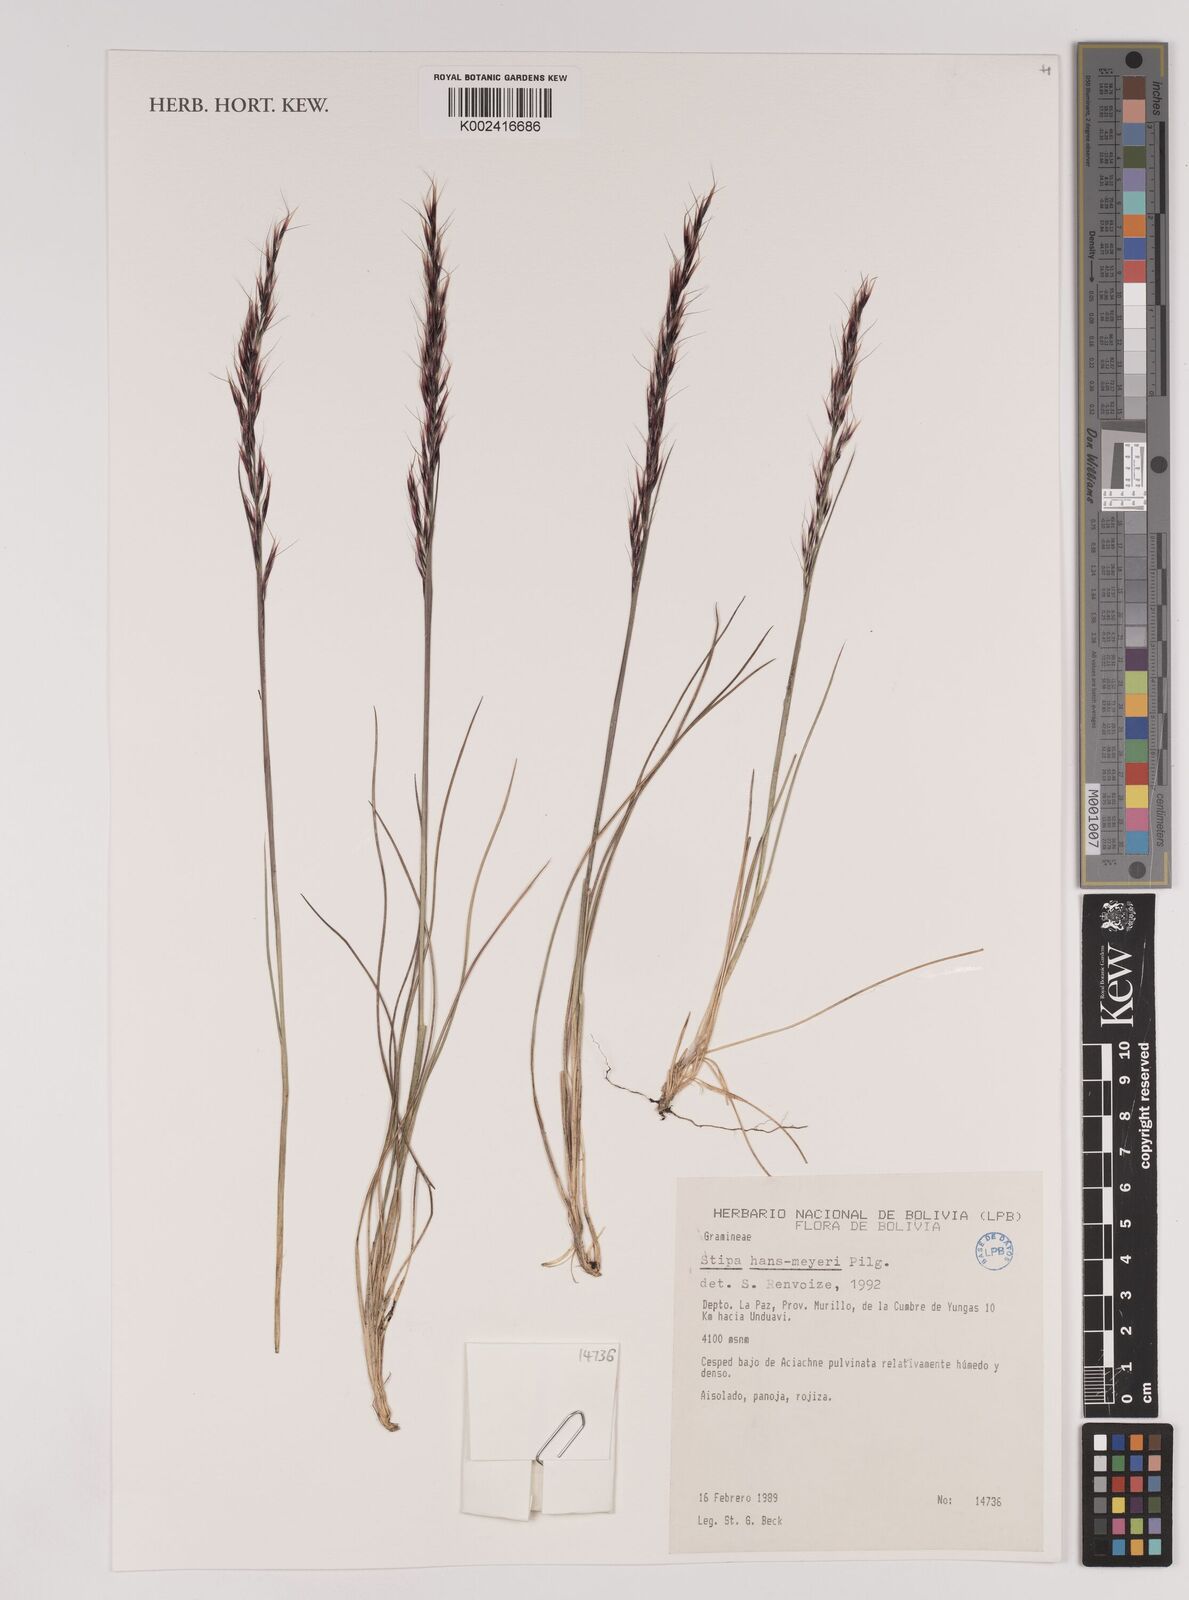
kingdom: Plantae
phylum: Tracheophyta
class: Liliopsida
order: Poales
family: Poaceae
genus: Stipa
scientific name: Stipa hans-meyeri
